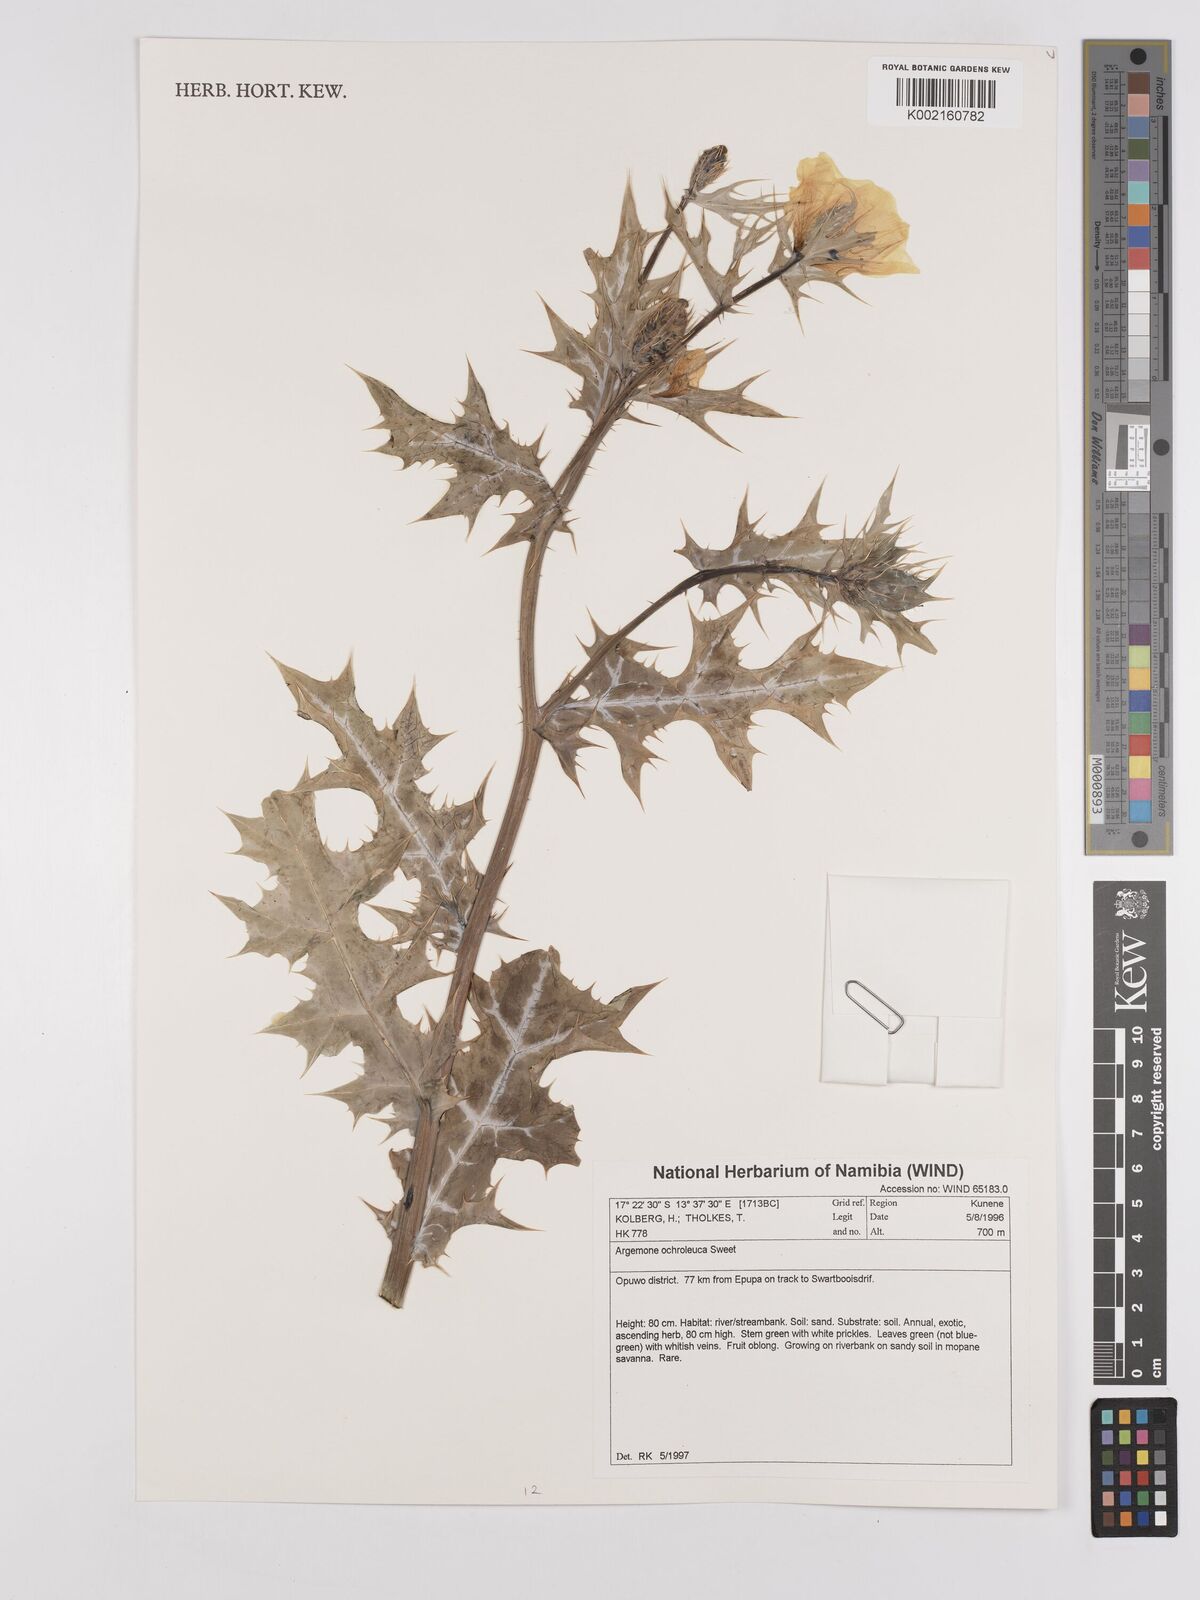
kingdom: Plantae
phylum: Tracheophyta
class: Magnoliopsida
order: Ranunculales
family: Papaveraceae
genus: Argemone
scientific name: Argemone ochroleuca
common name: White-flower mexican-poppy
